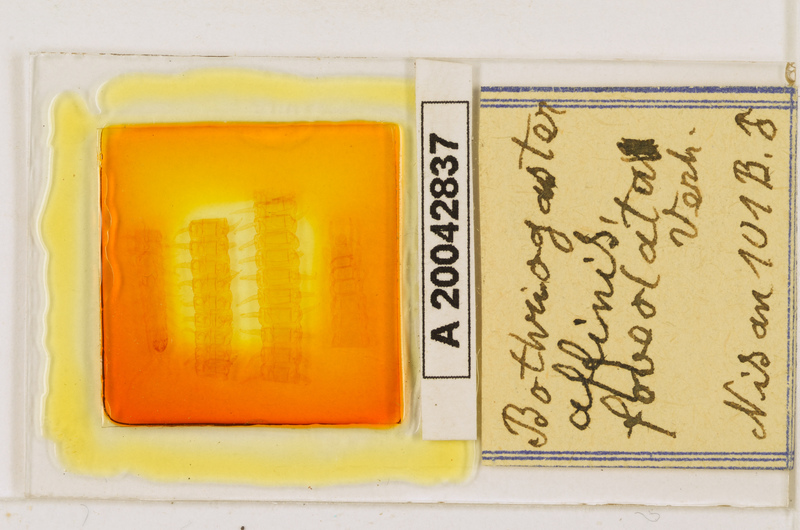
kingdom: Animalia
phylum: Arthropoda
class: Chilopoda
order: Geophilomorpha
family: Himantariidae
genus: Bothriogaster
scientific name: Bothriogaster signata
